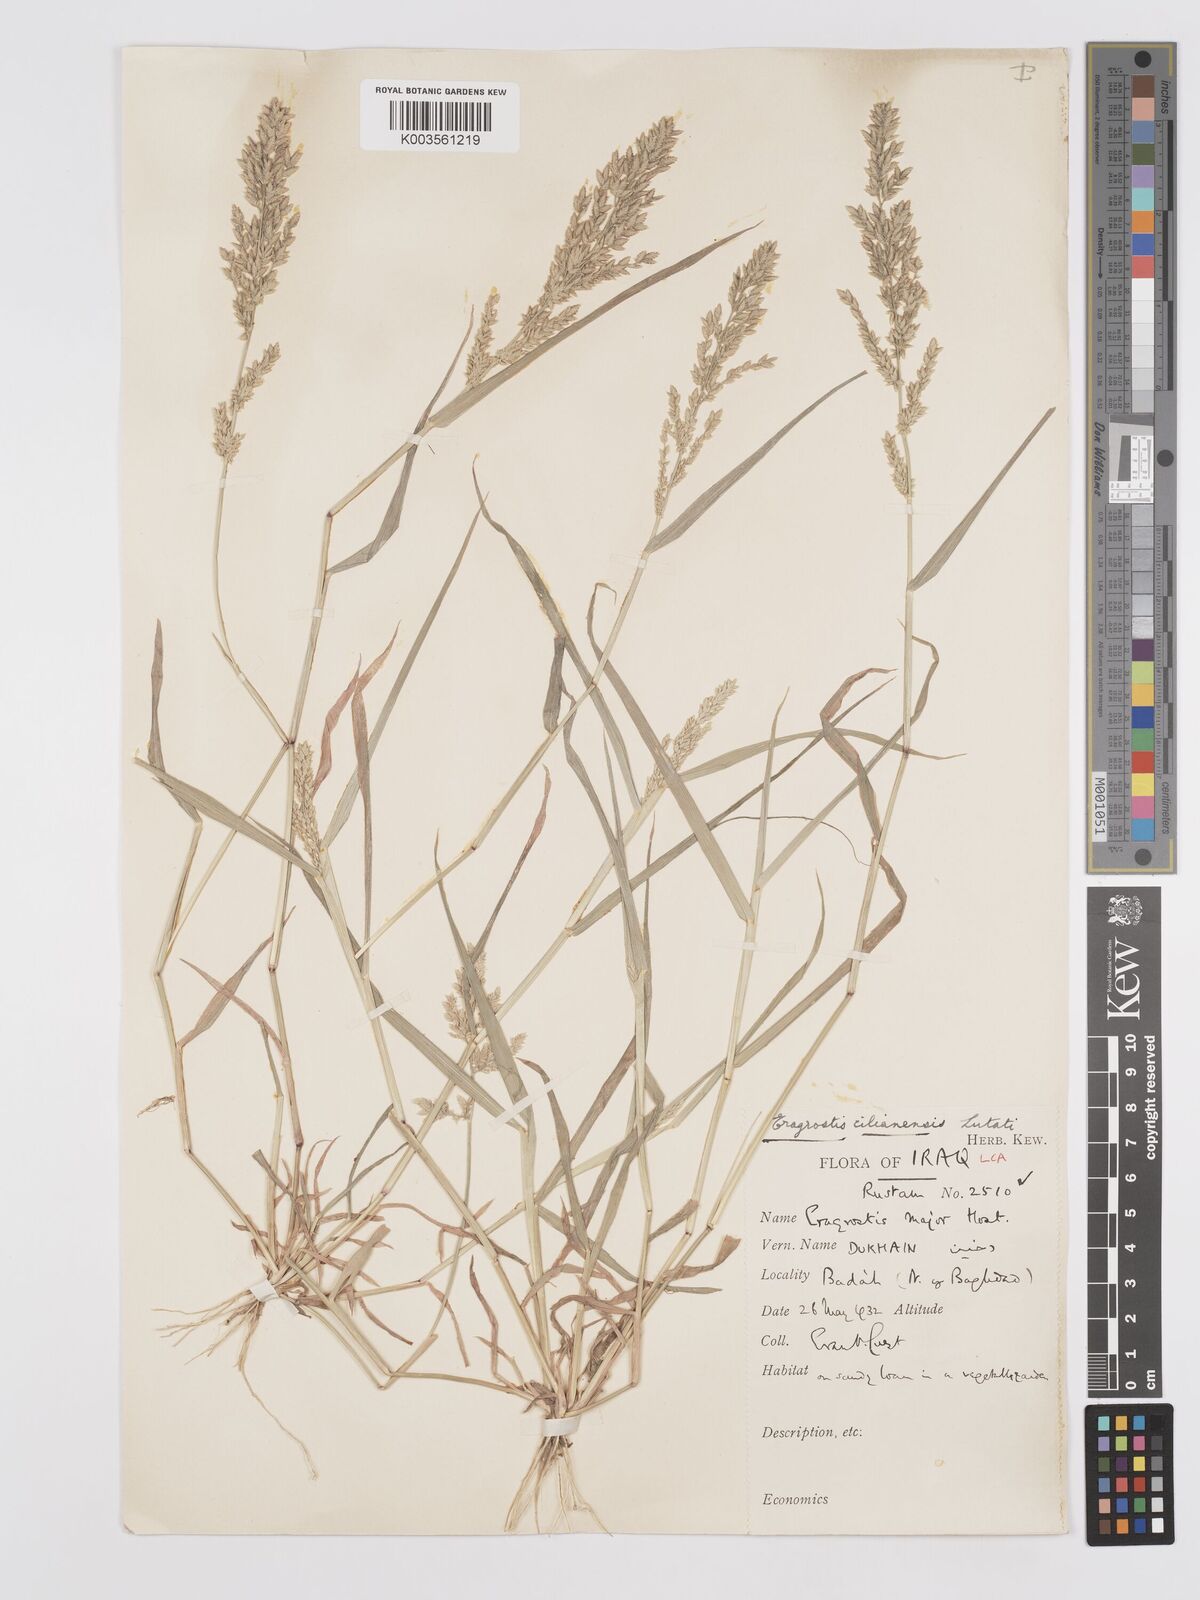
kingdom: Plantae
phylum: Tracheophyta
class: Liliopsida
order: Poales
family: Poaceae
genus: Eragrostis
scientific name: Eragrostis cilianensis
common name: Stinkgrass
